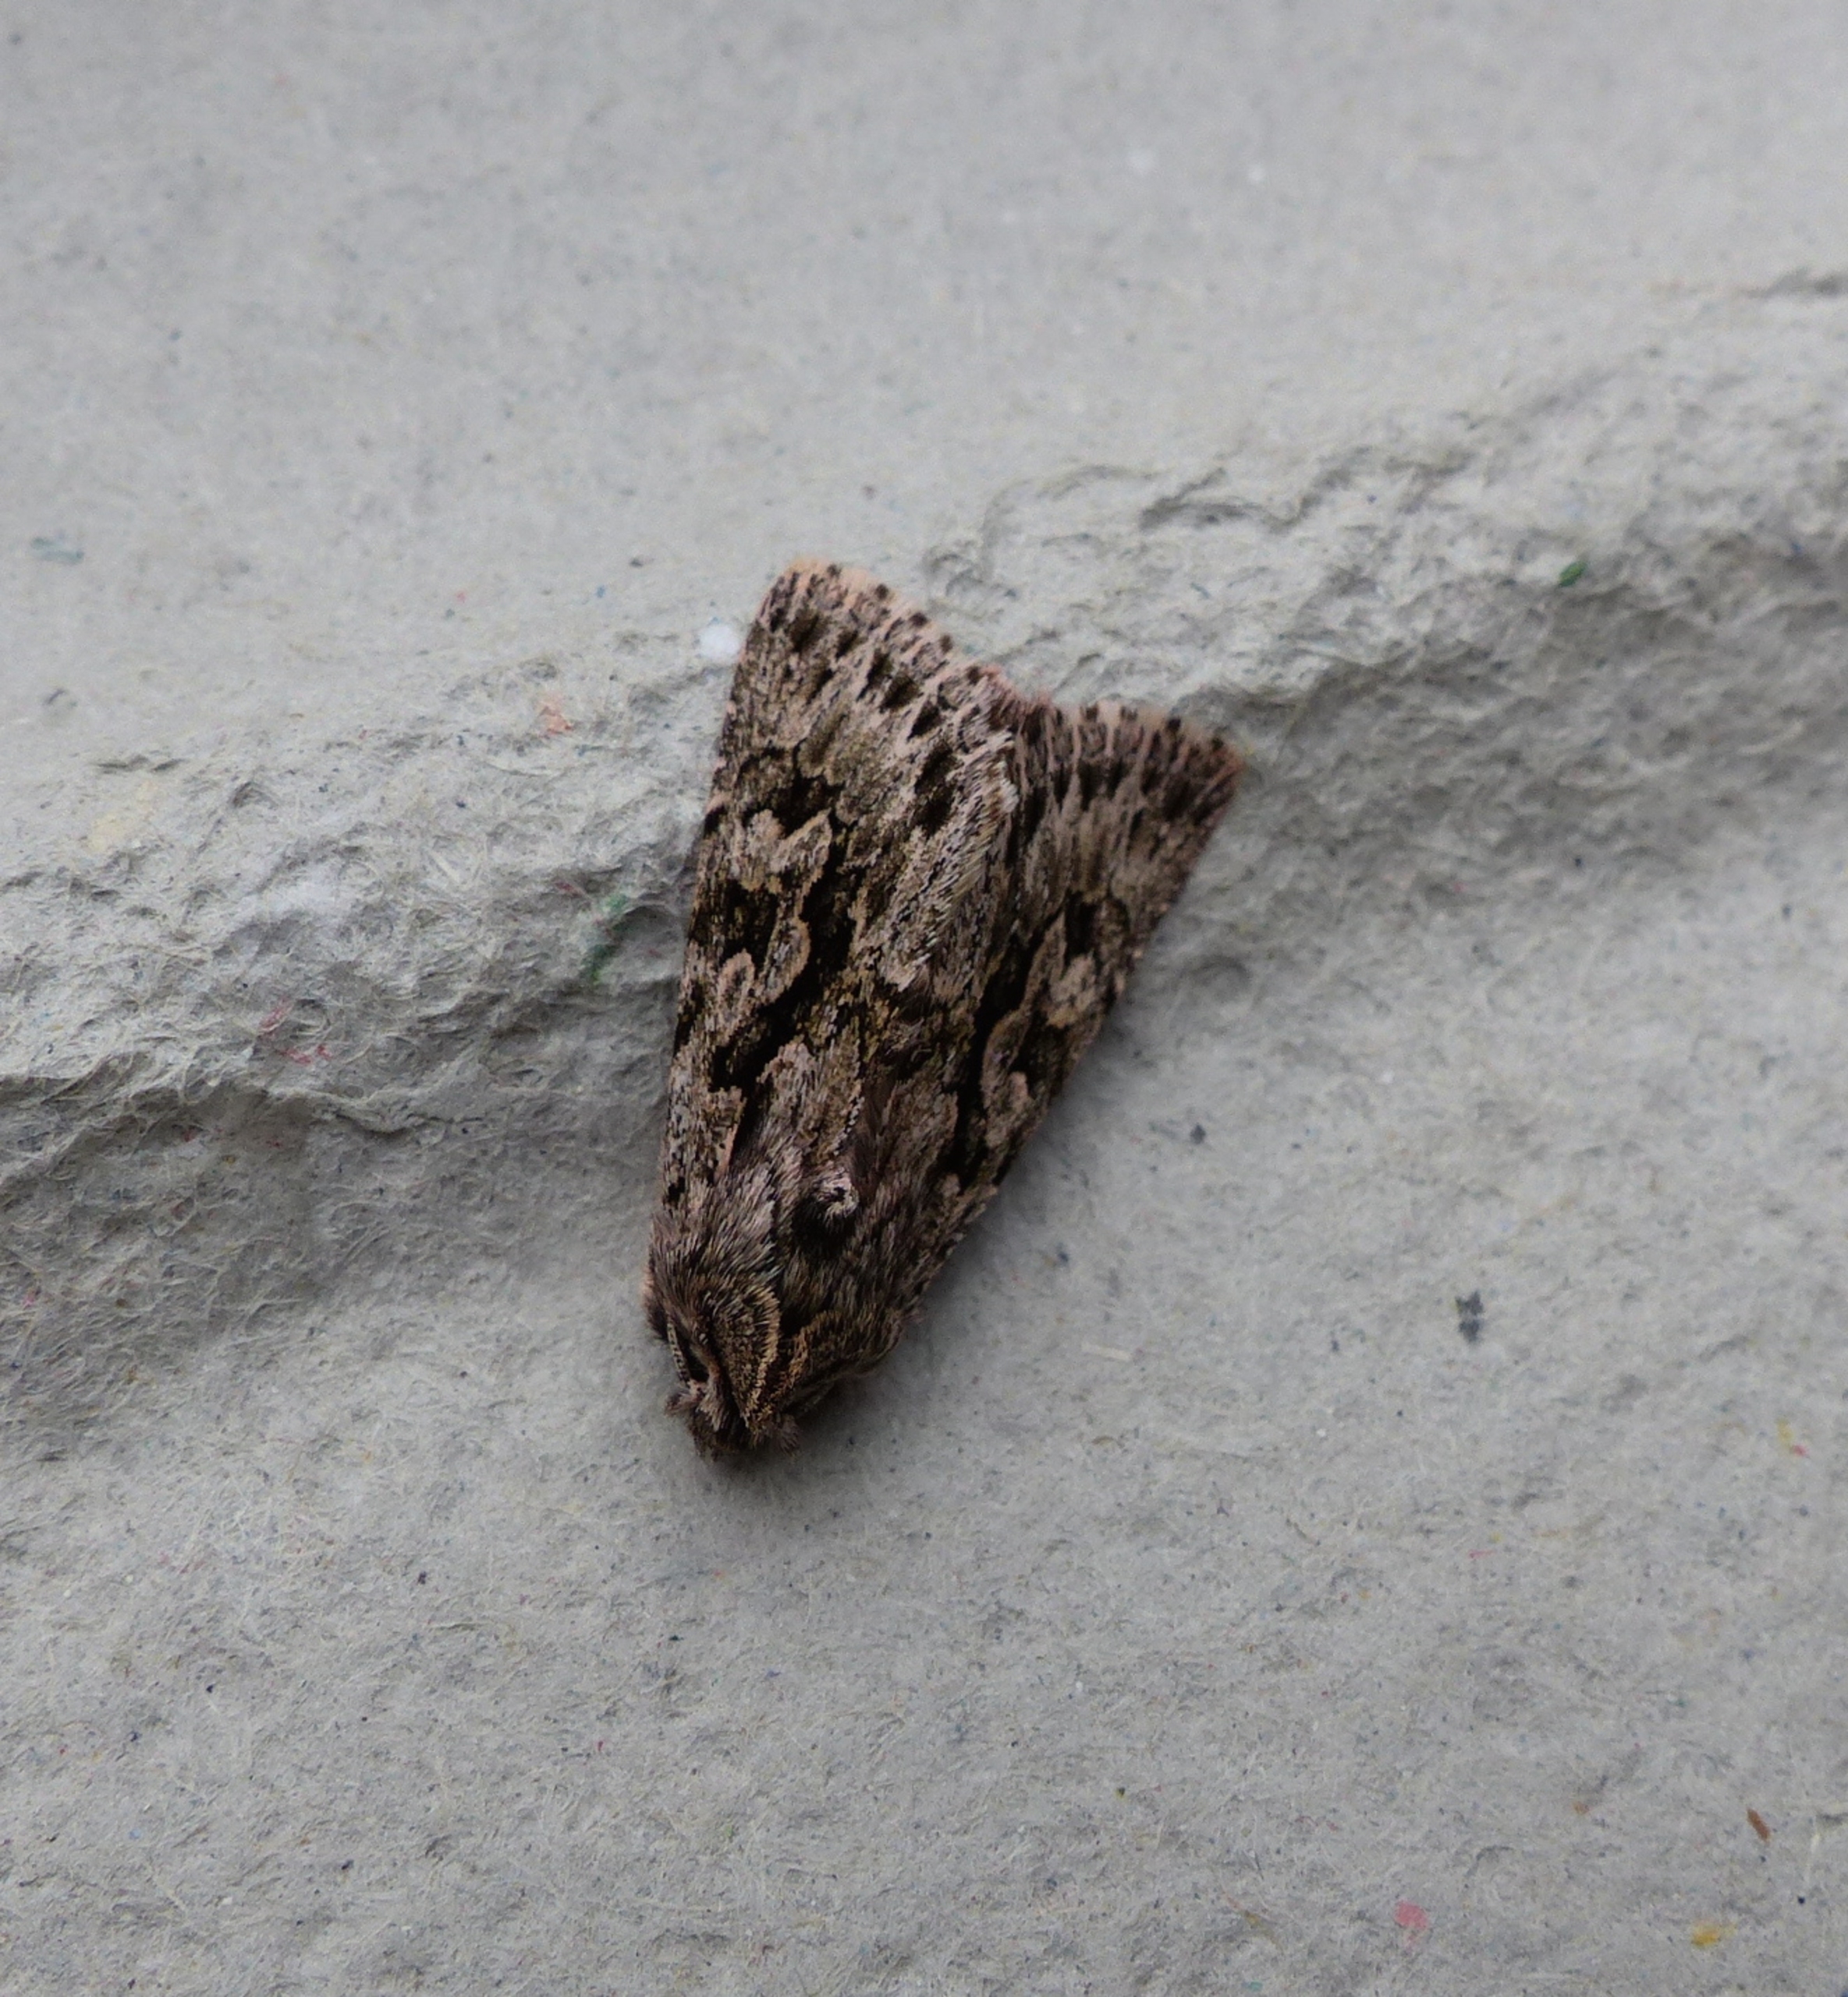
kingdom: Animalia
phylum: Arthropoda
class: Insecta
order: Lepidoptera
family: Noctuidae
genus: Xylocampa
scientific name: Xylocampa areola
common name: Gedeblad-ugle
